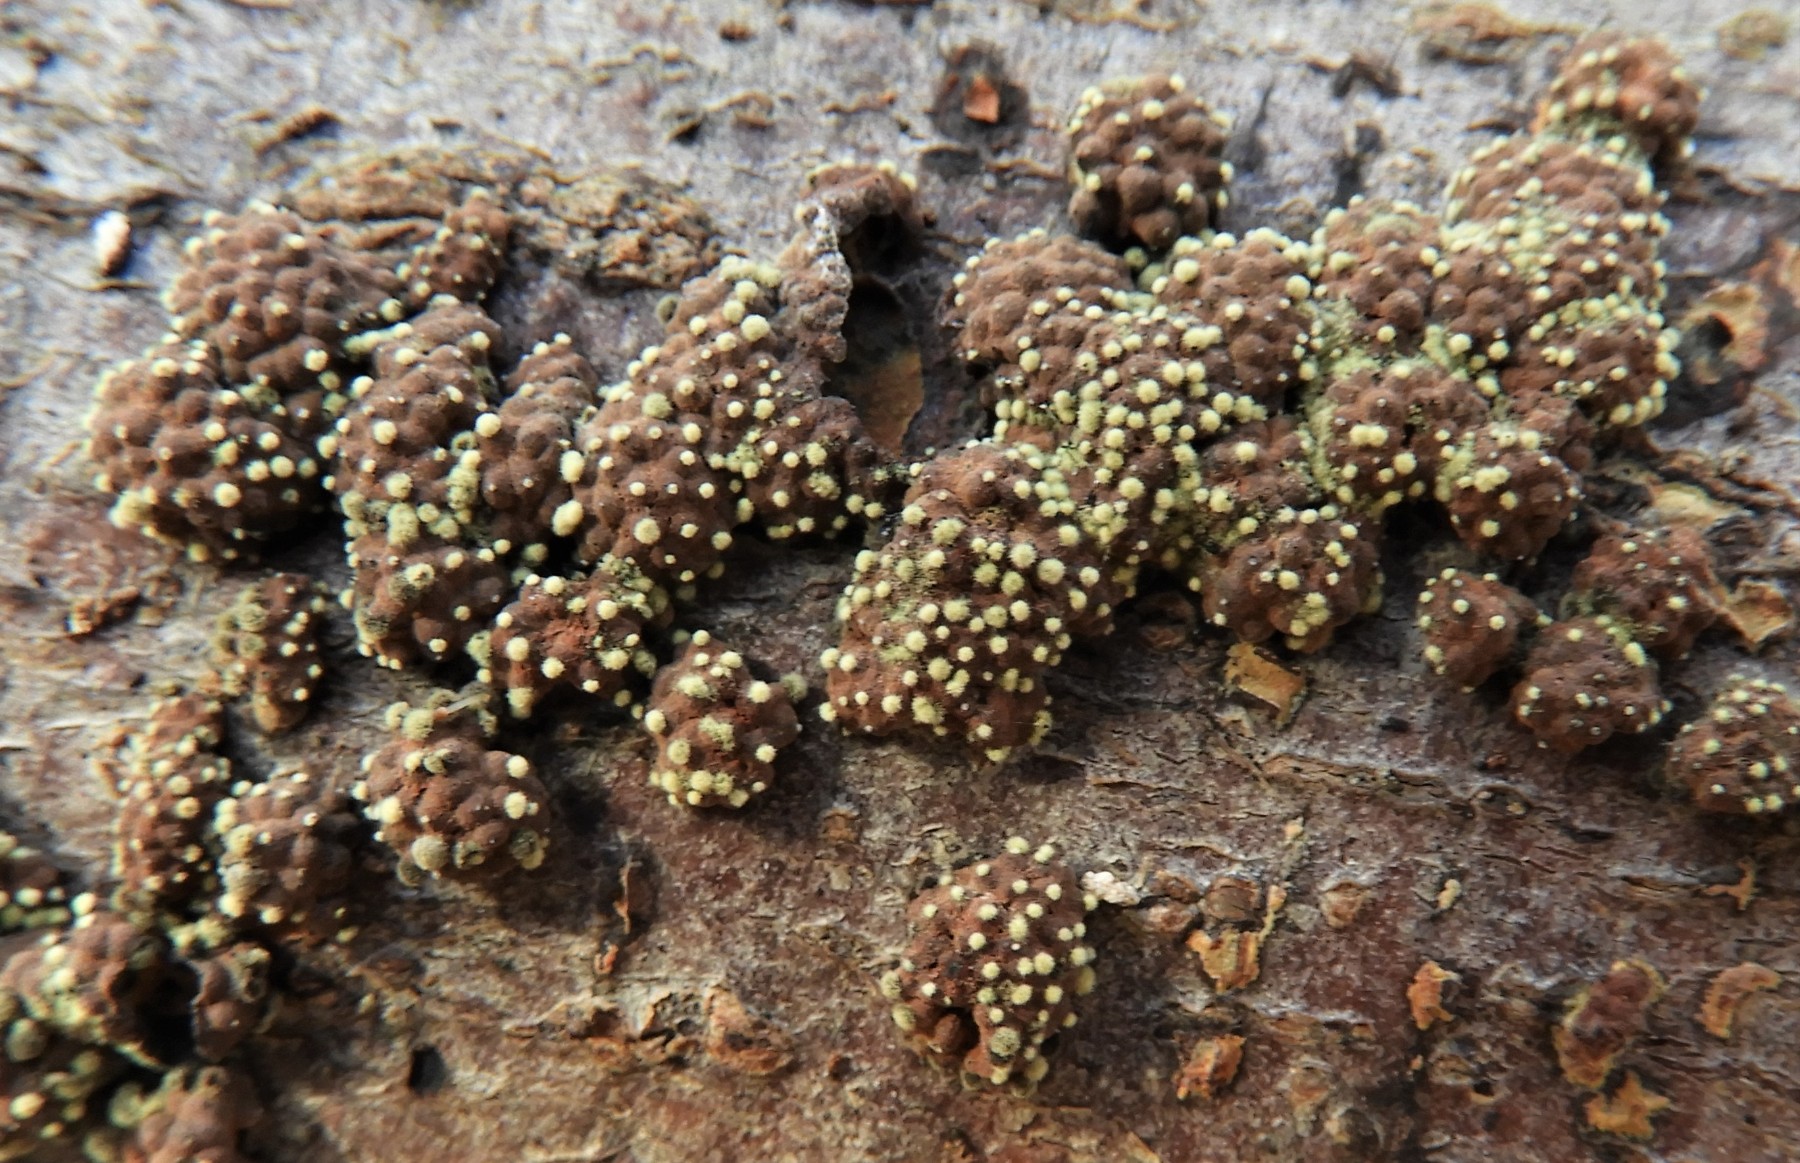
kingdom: Fungi
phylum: Ascomycota
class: Sordariomycetes
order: Xylariales
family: Hypoxylaceae
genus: Hypoxylon
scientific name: Hypoxylon rubiginosum
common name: rustfarvet kulbær
